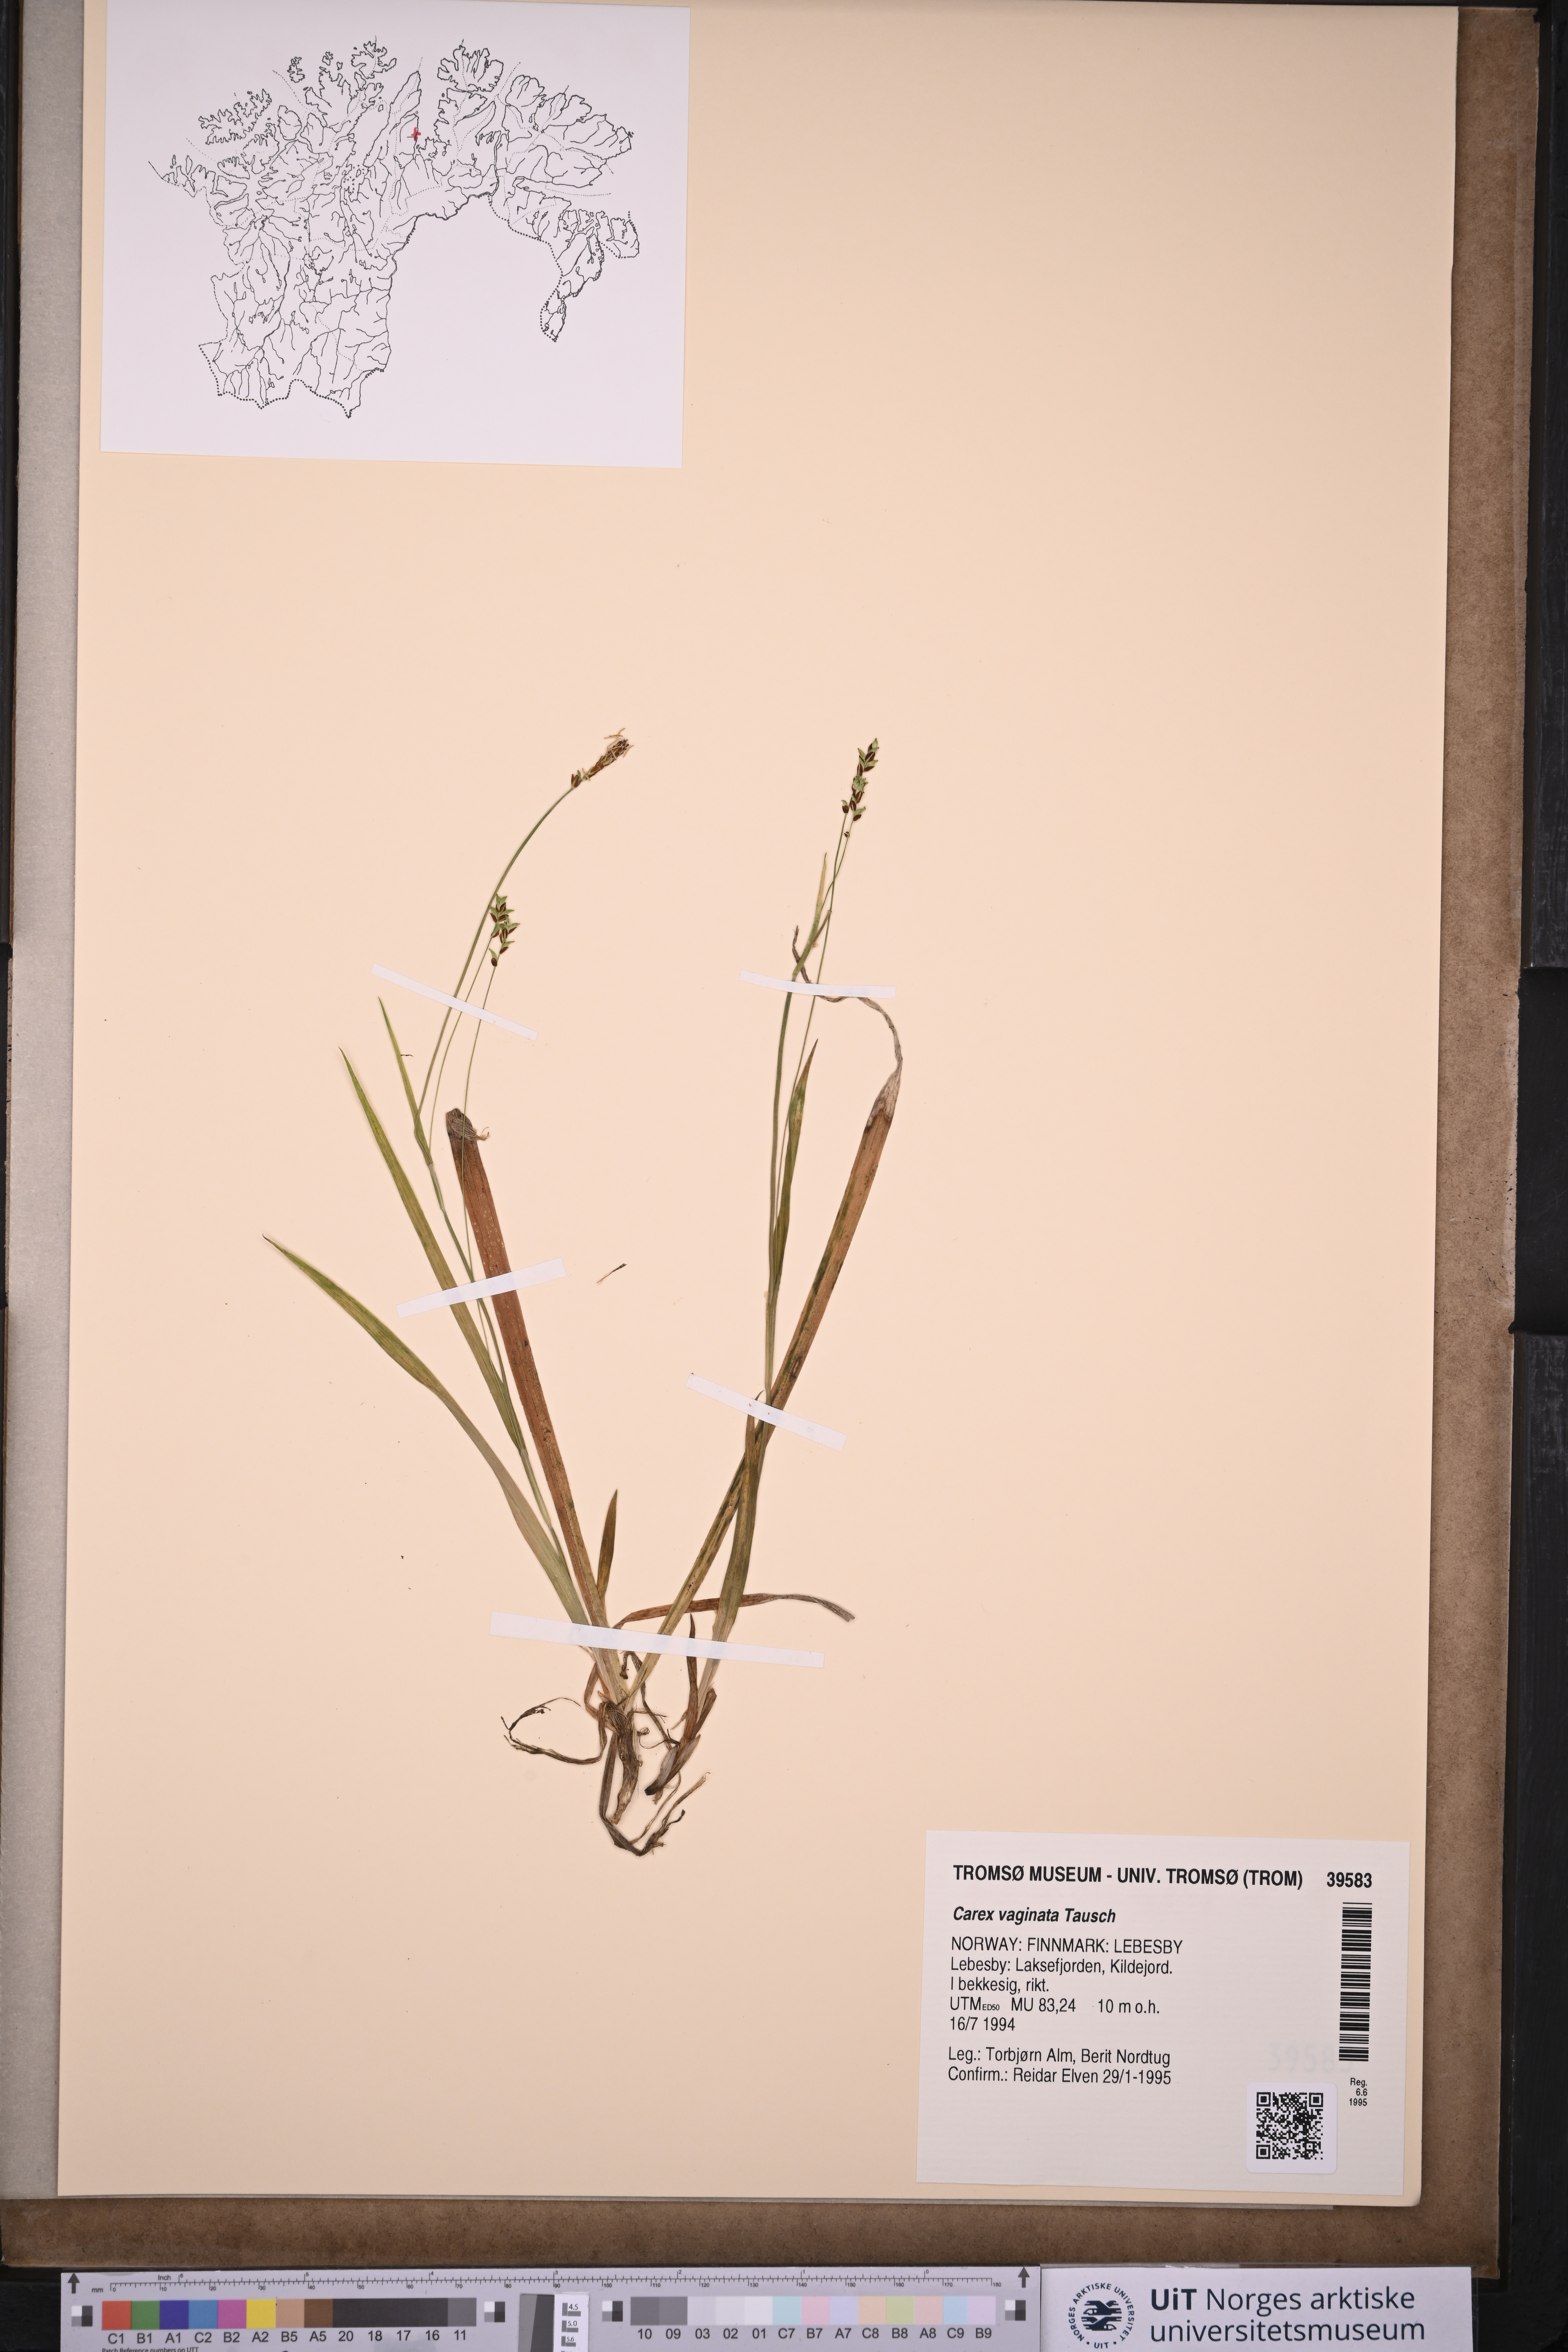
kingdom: Plantae
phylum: Tracheophyta
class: Liliopsida
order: Poales
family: Cyperaceae
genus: Carex
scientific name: Carex vaginata
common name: Sheathed sedge
